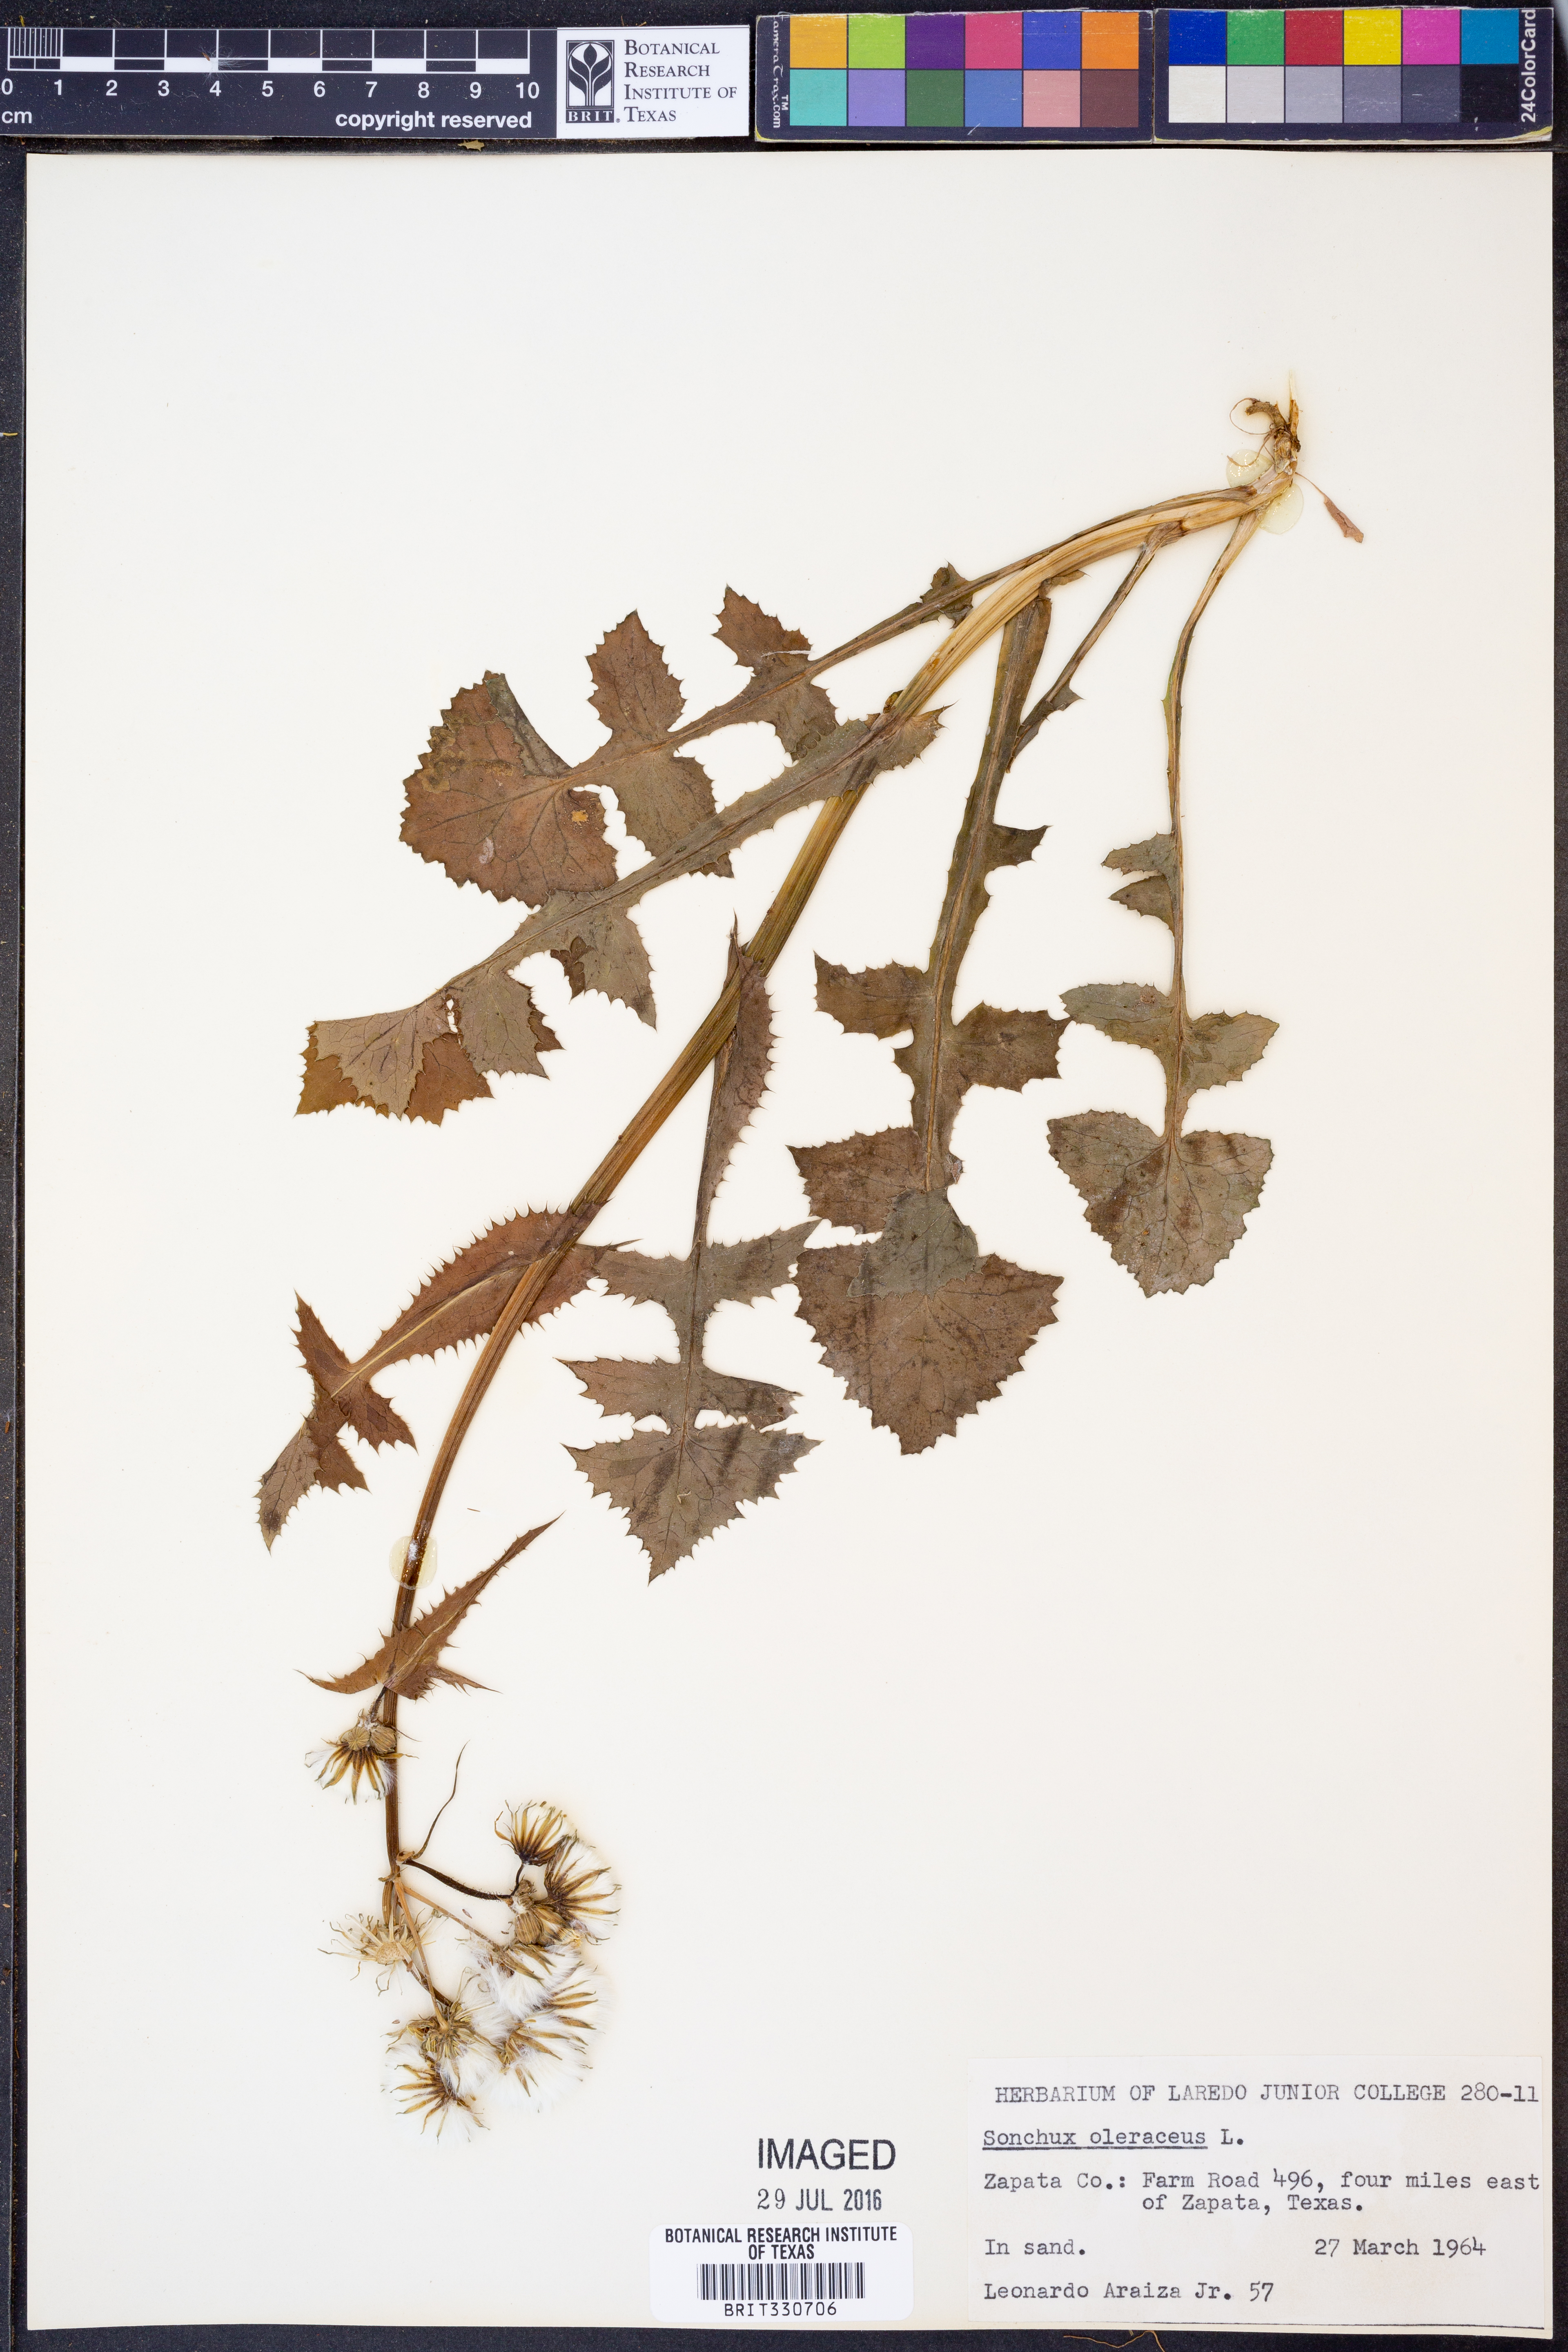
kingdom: Plantae
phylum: Tracheophyta
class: Magnoliopsida
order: Asterales
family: Asteraceae
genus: Sonchus
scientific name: Sonchus oleraceus
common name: Common sowthistle
